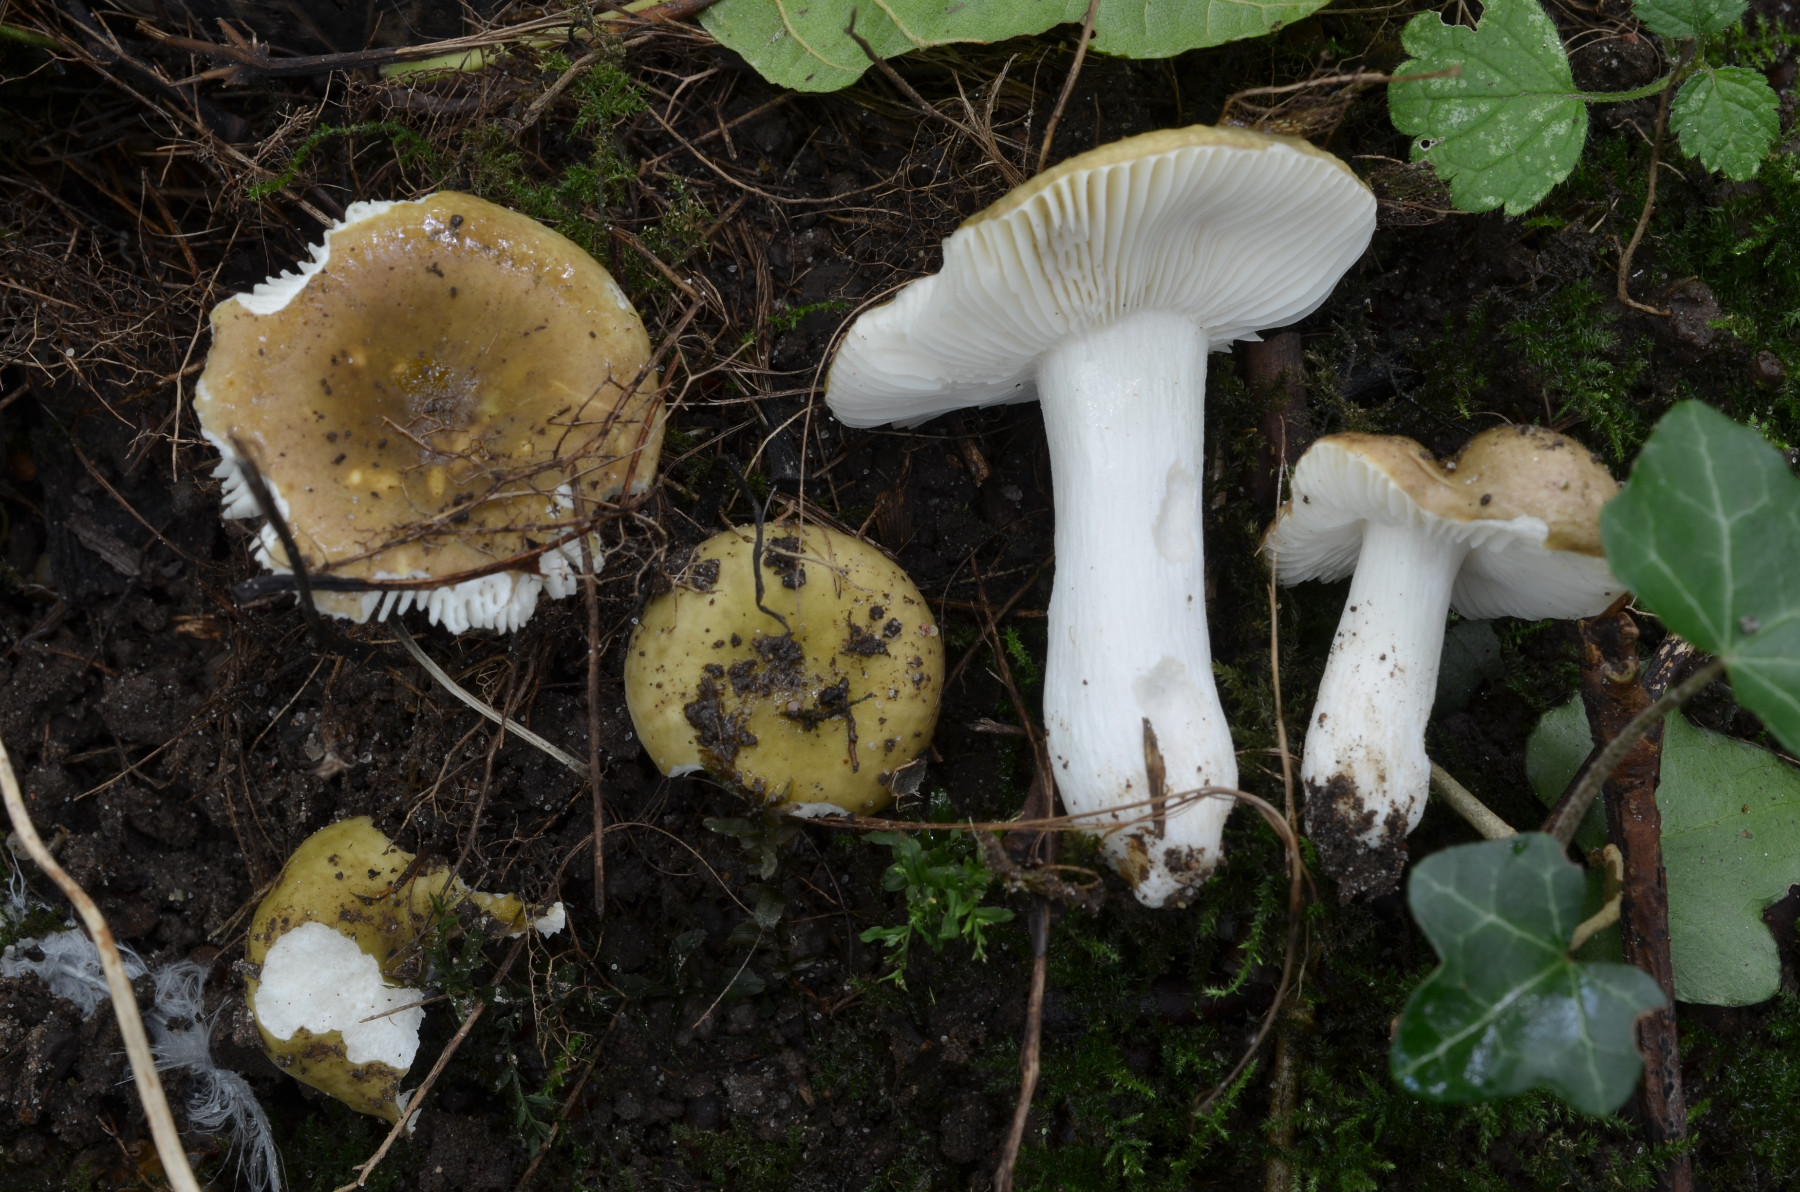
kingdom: Fungi
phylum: Basidiomycota
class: Agaricomycetes
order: Russulales
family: Russulaceae
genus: Russula
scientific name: Russula pelargonia
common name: pelargonie-skørhat
